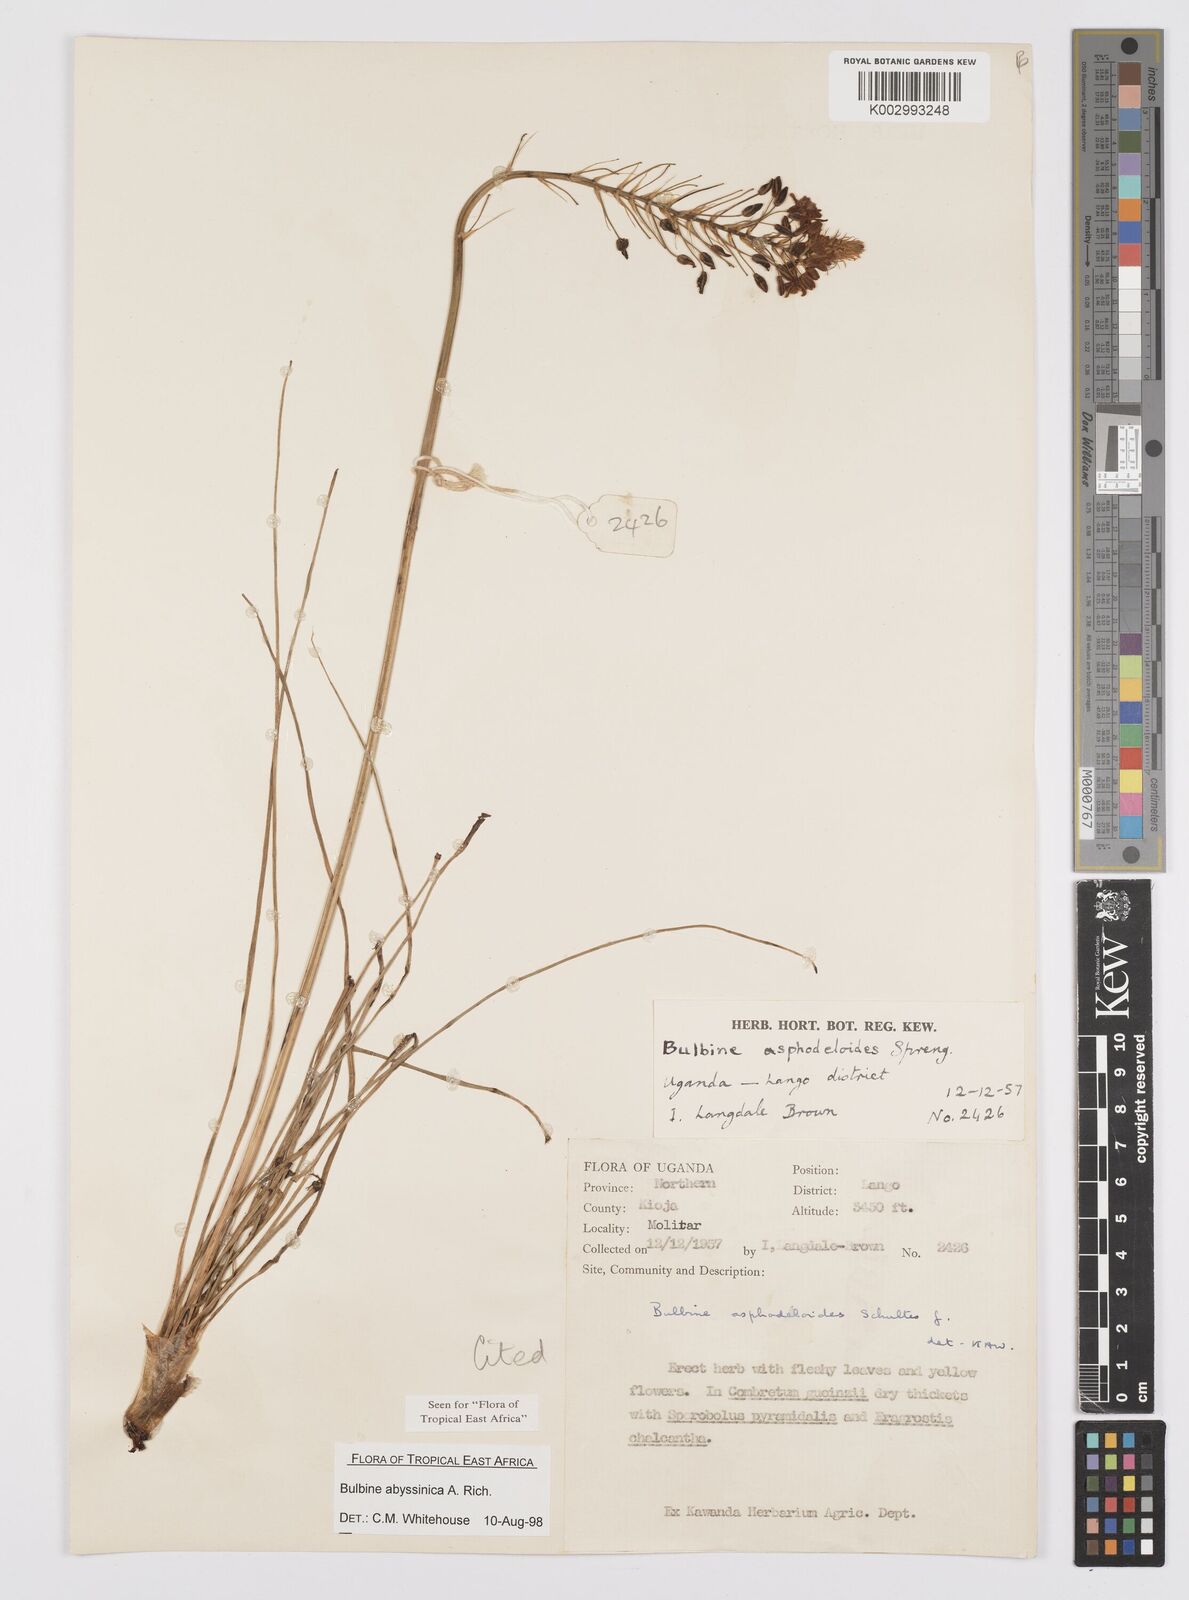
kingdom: Plantae
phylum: Tracheophyta
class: Liliopsida
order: Asparagales
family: Asphodelaceae
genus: Bulbine
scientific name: Bulbine abyssinica
